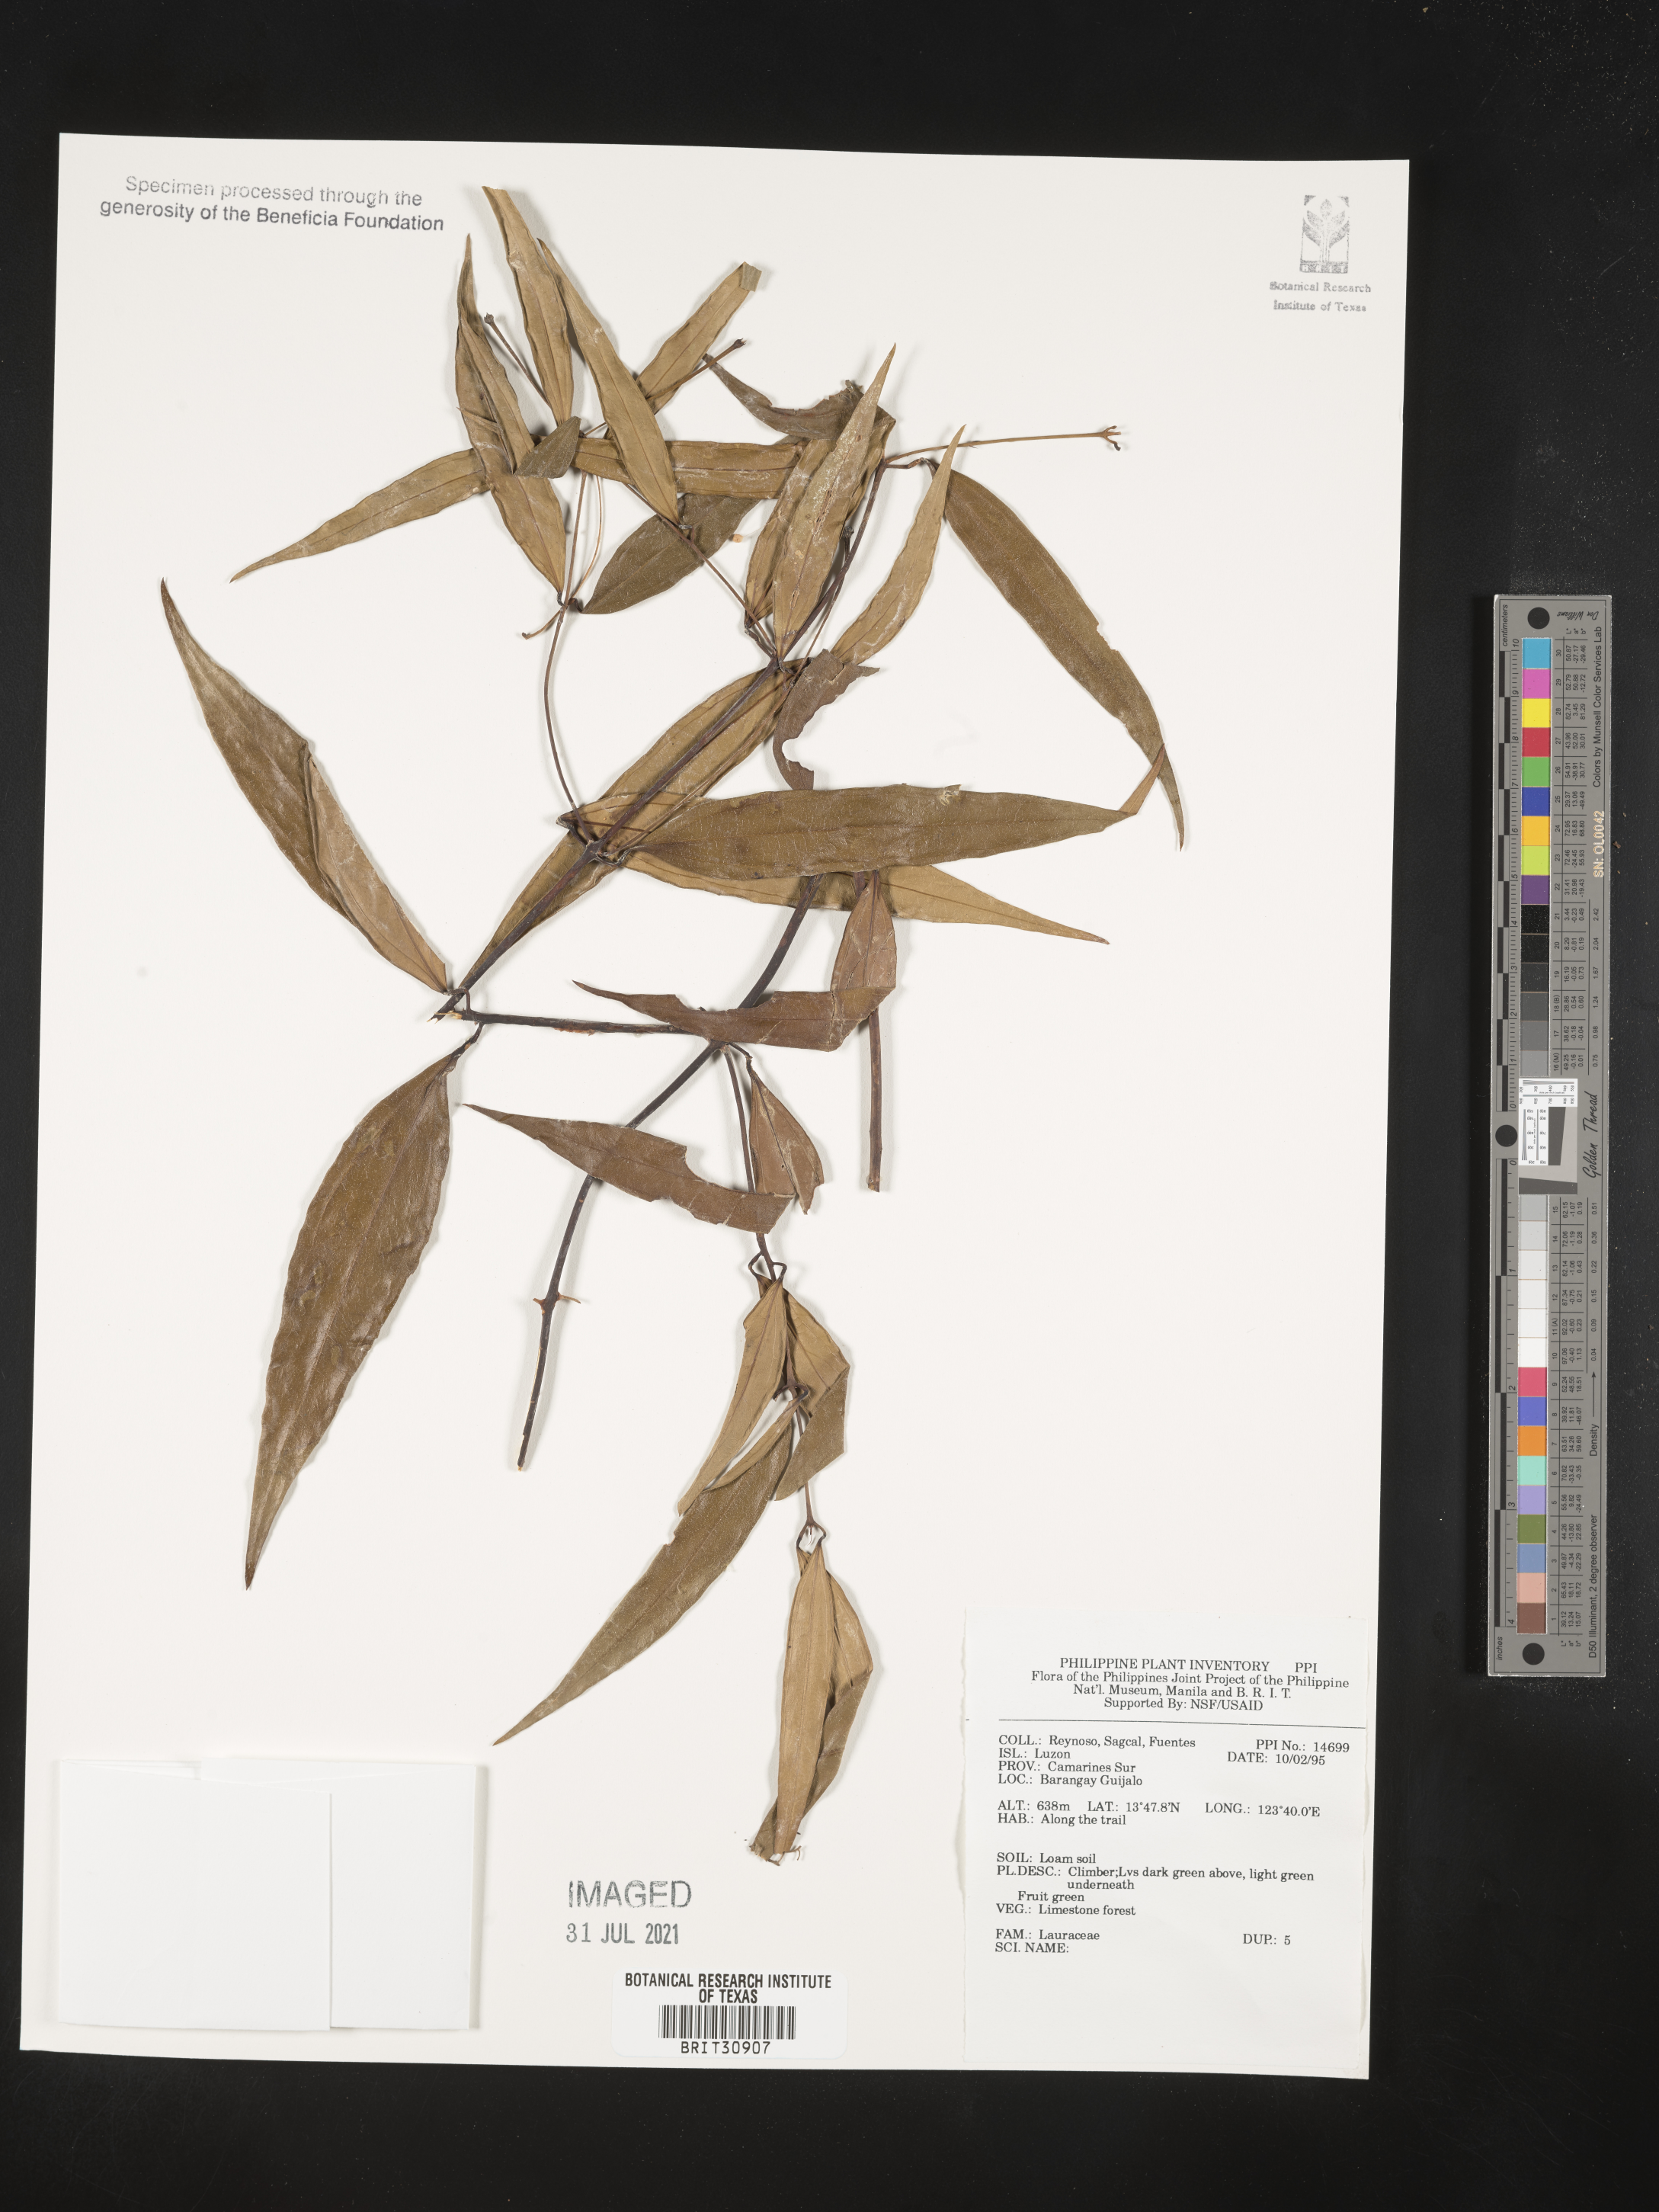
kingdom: Plantae
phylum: Tracheophyta
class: Magnoliopsida
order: Laurales
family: Lauraceae
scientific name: Lauraceae
